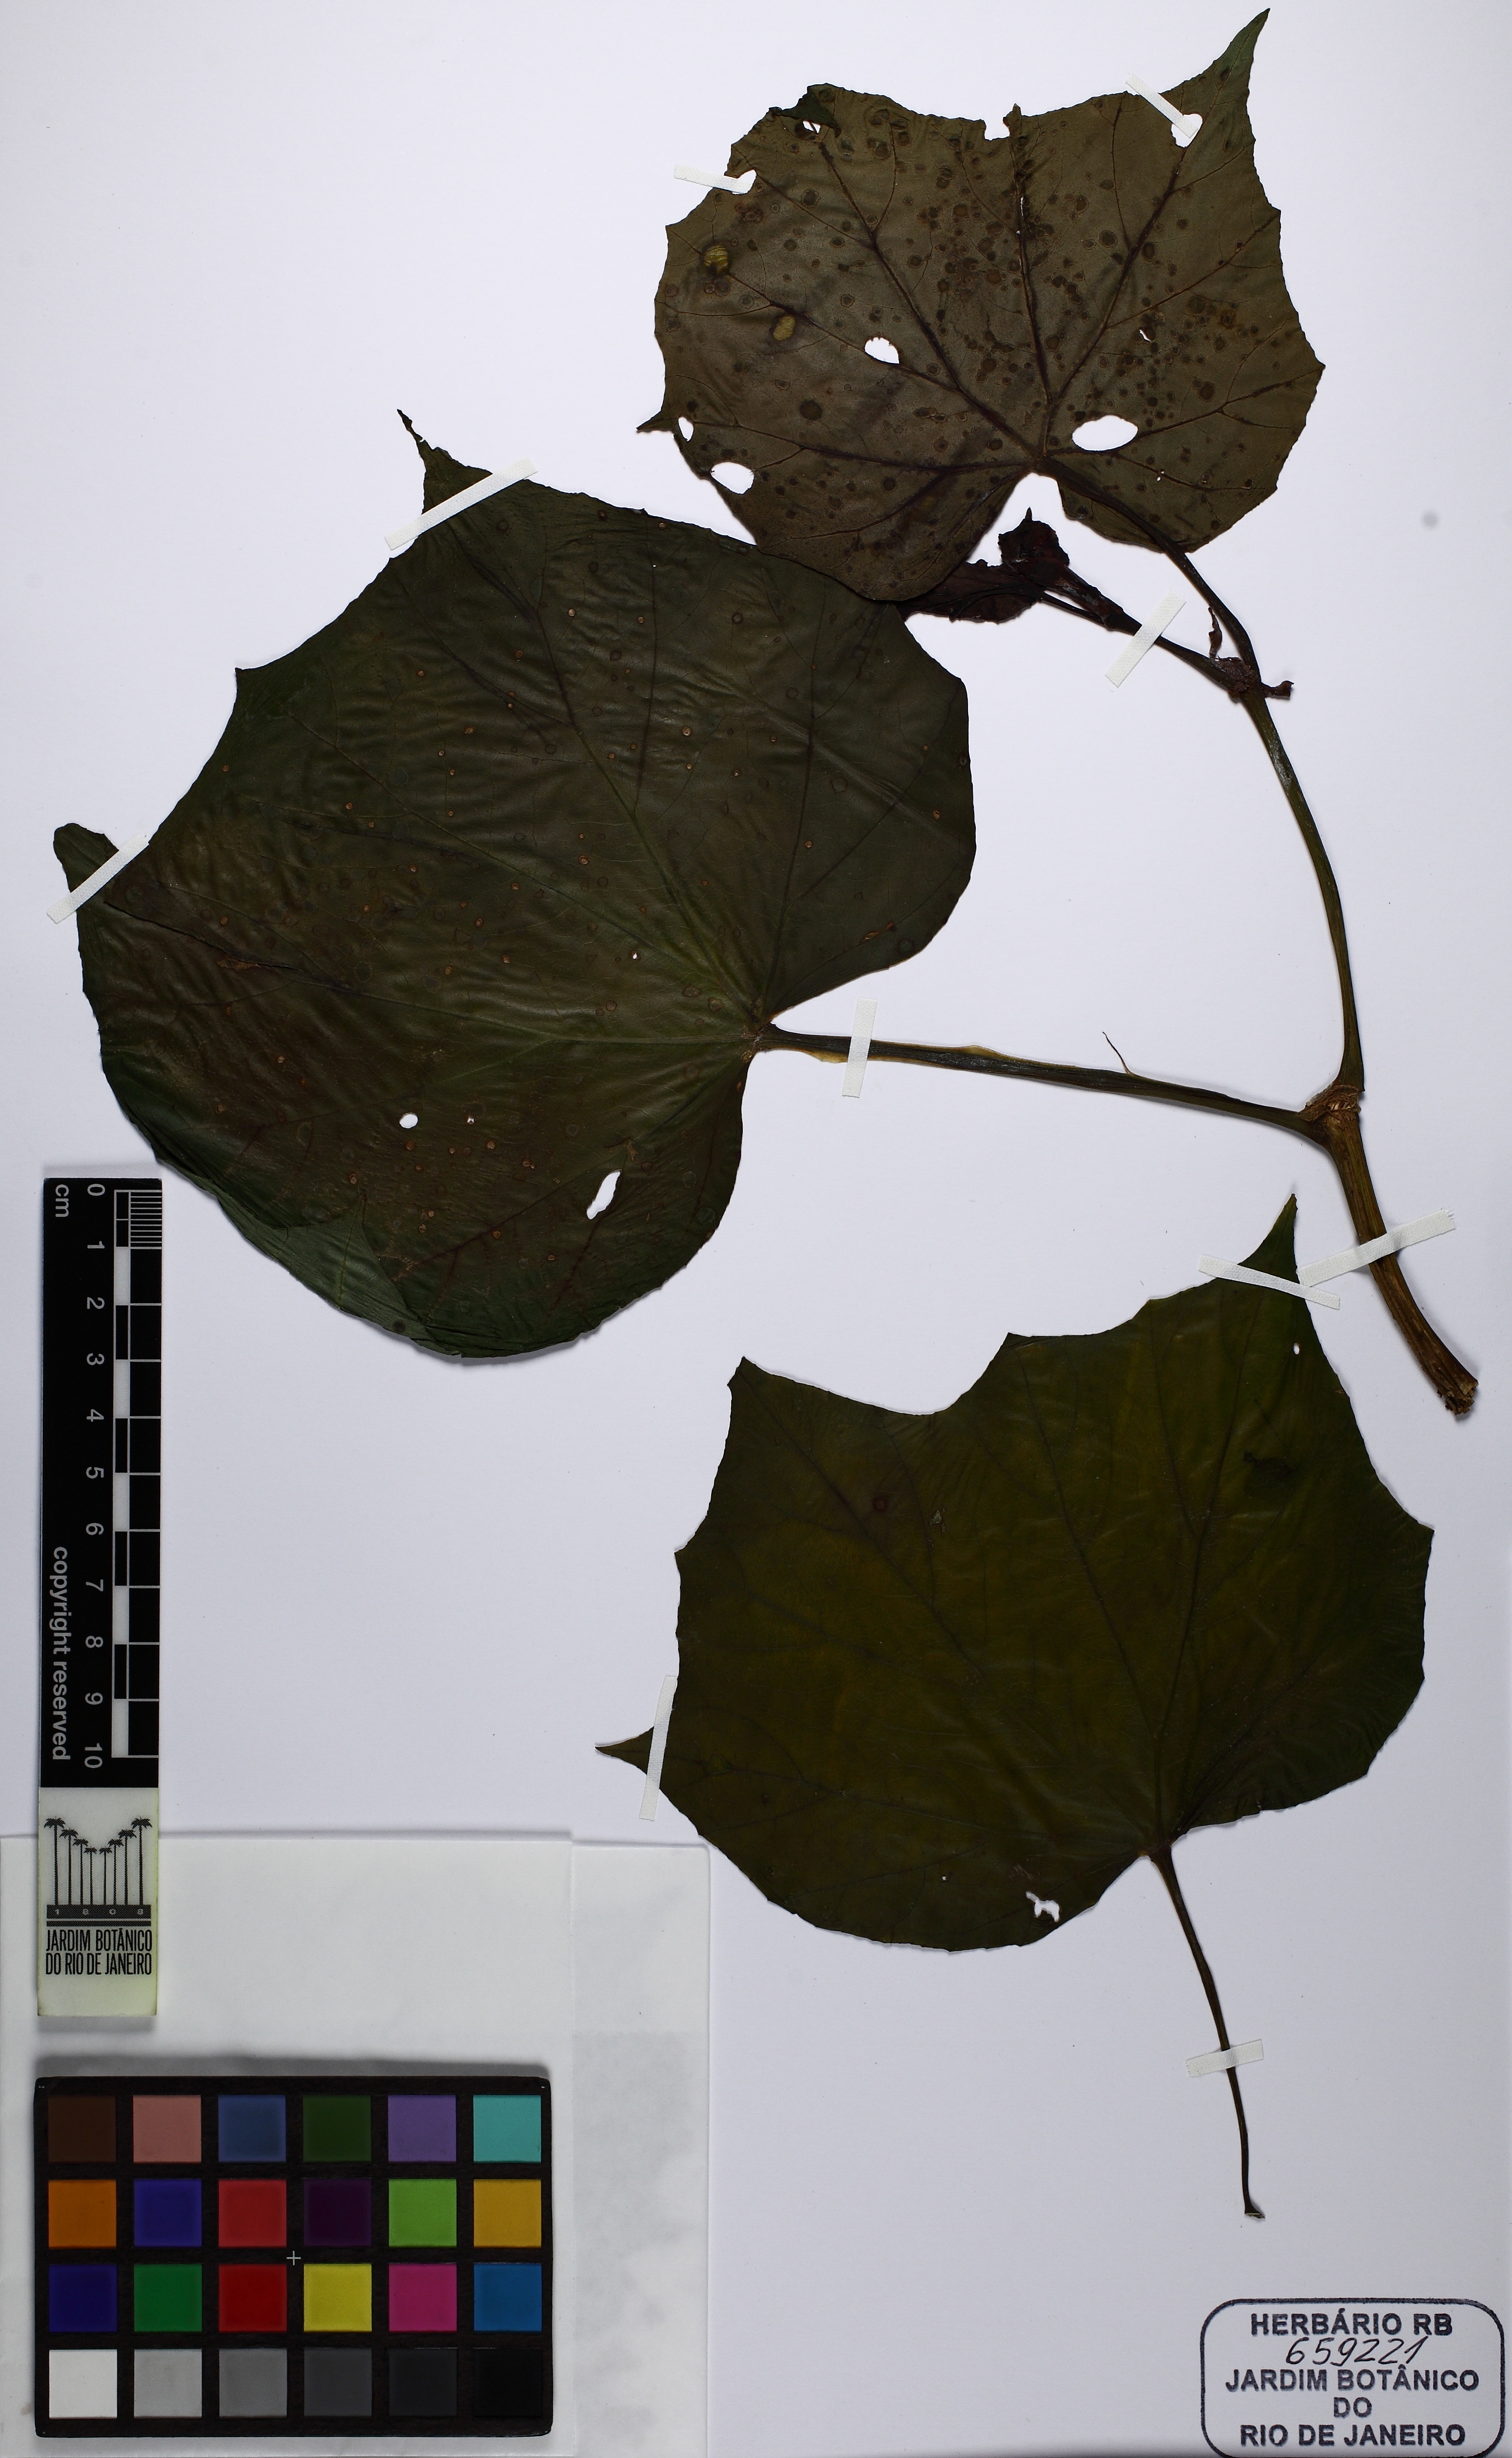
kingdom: Plantae
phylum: Tracheophyta
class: Magnoliopsida
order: Cucurbitales
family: Begoniaceae
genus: Begonia
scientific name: Begonia convolvulacea
